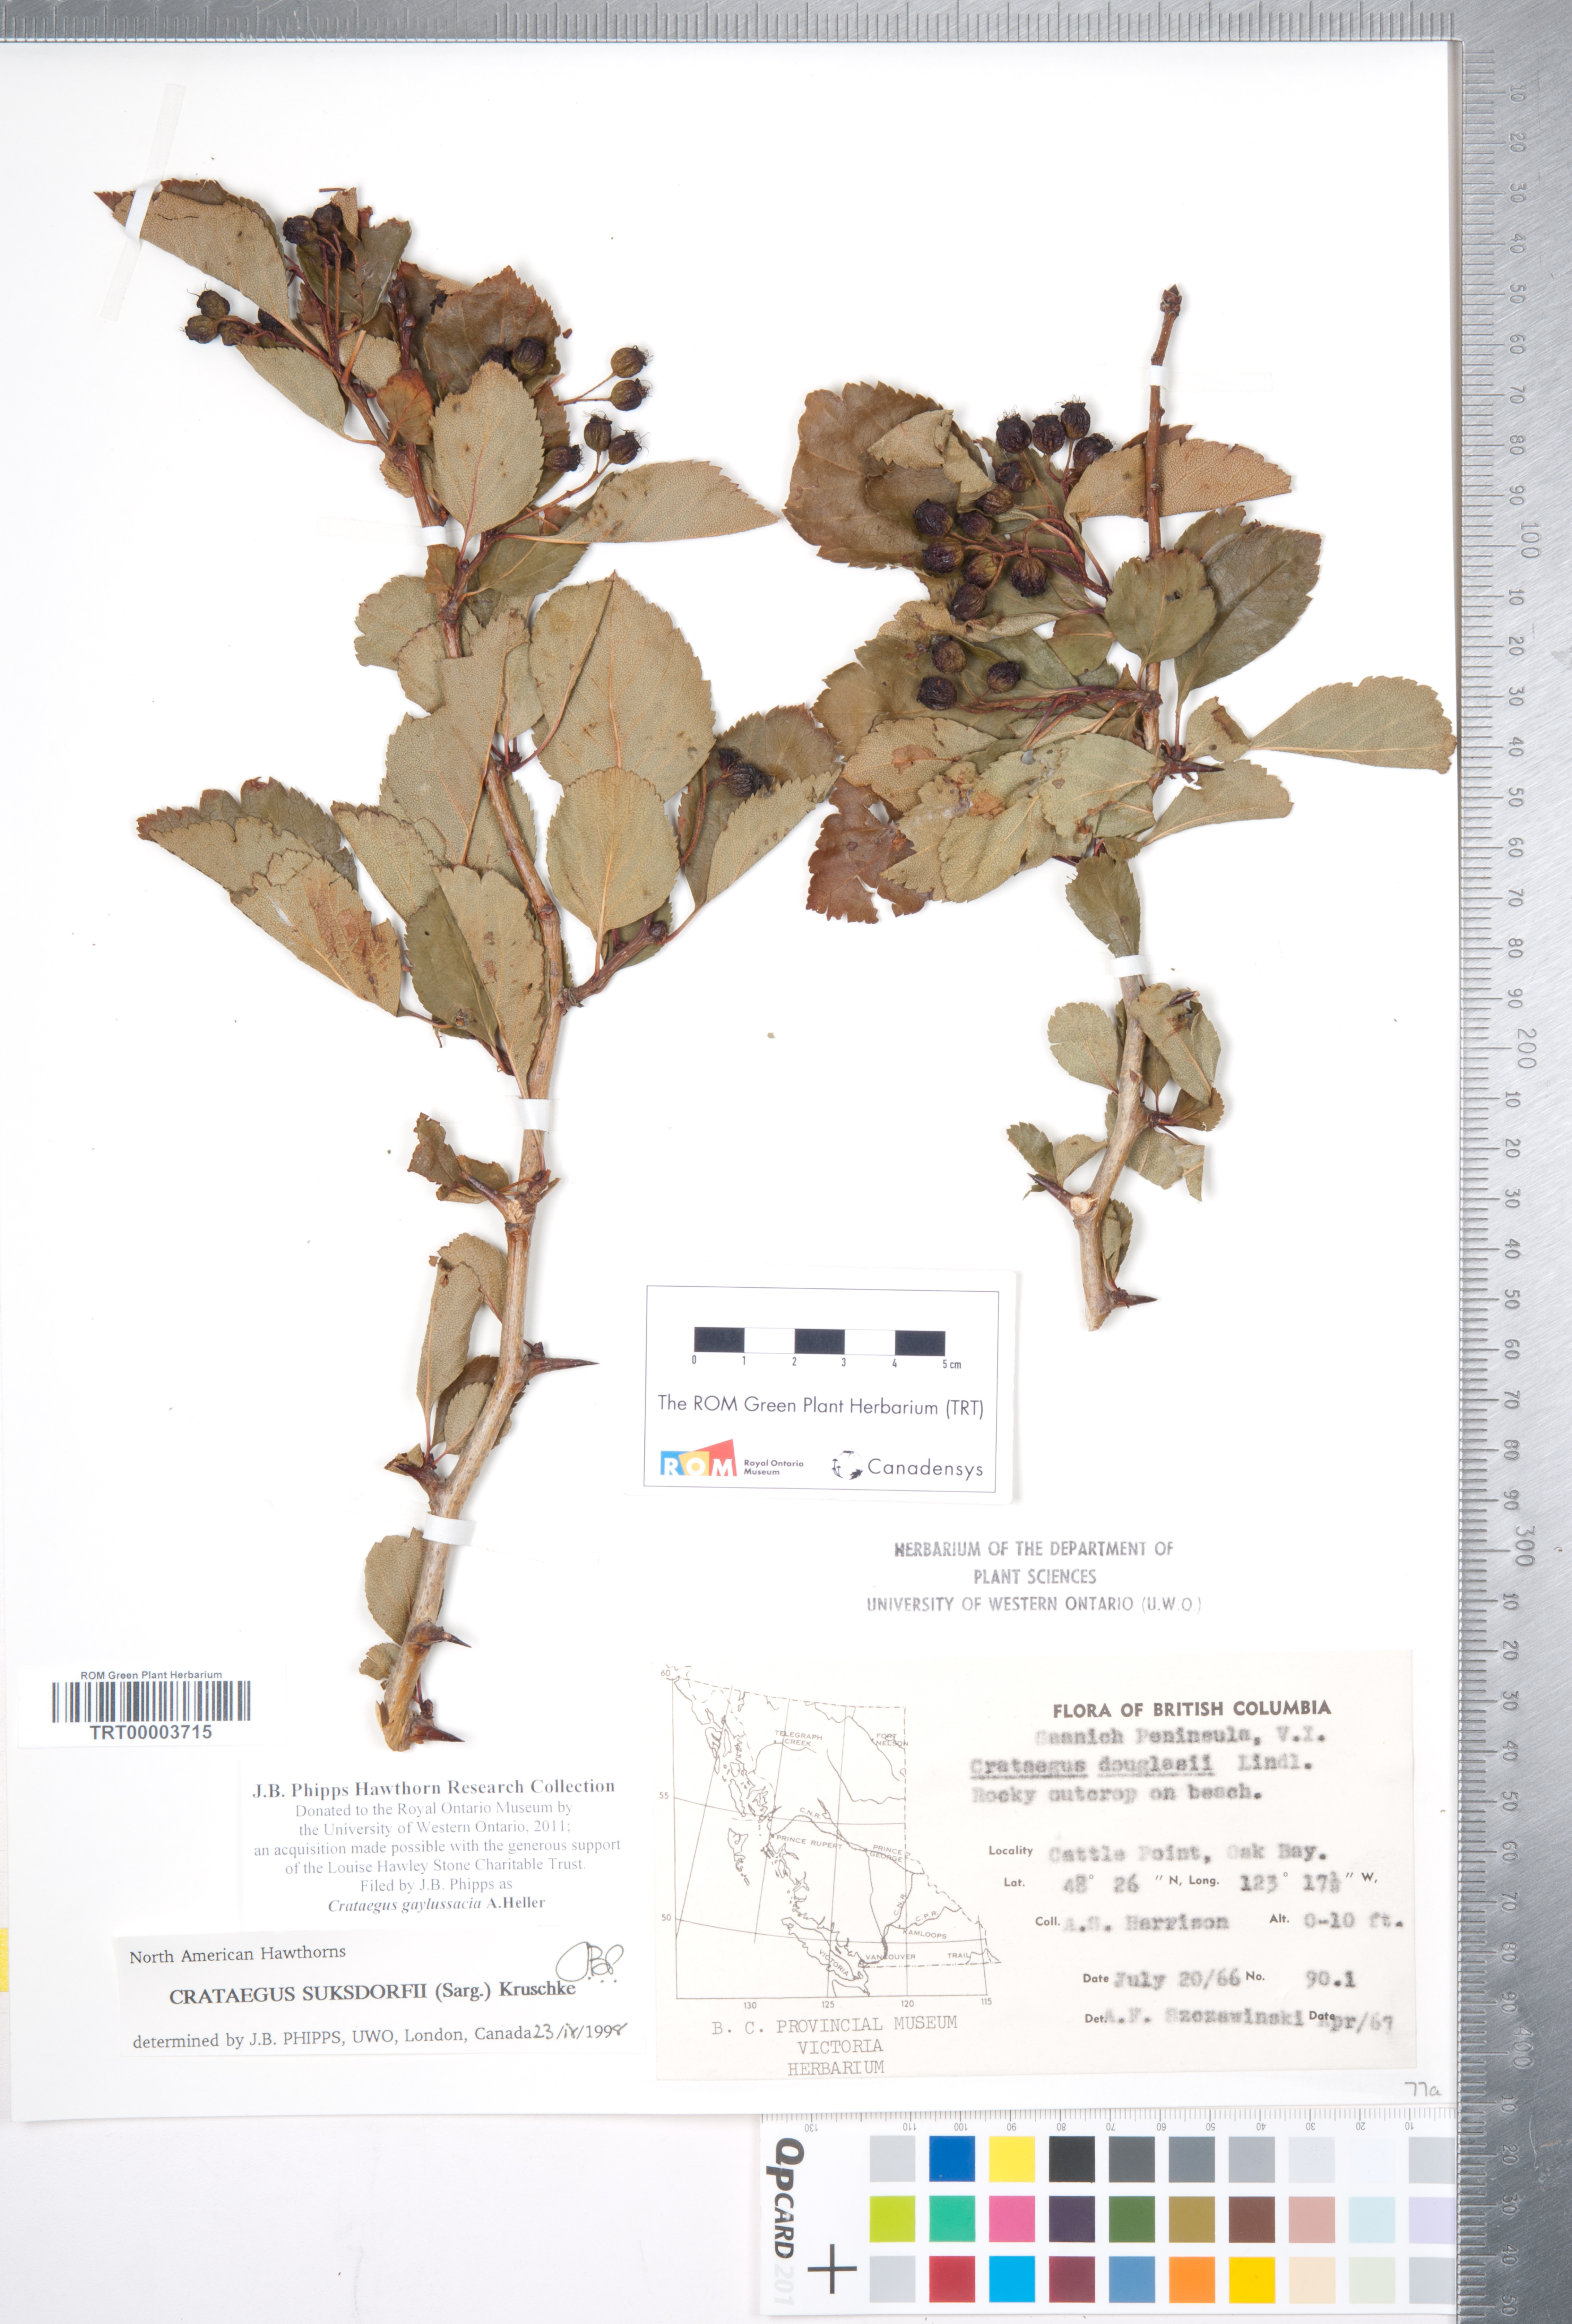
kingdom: Plantae
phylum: Tracheophyta
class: Magnoliopsida
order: Rosales
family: Rosaceae
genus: Crataegus
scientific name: Crataegus gaylussacia
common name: Huckleberry hawthorn
